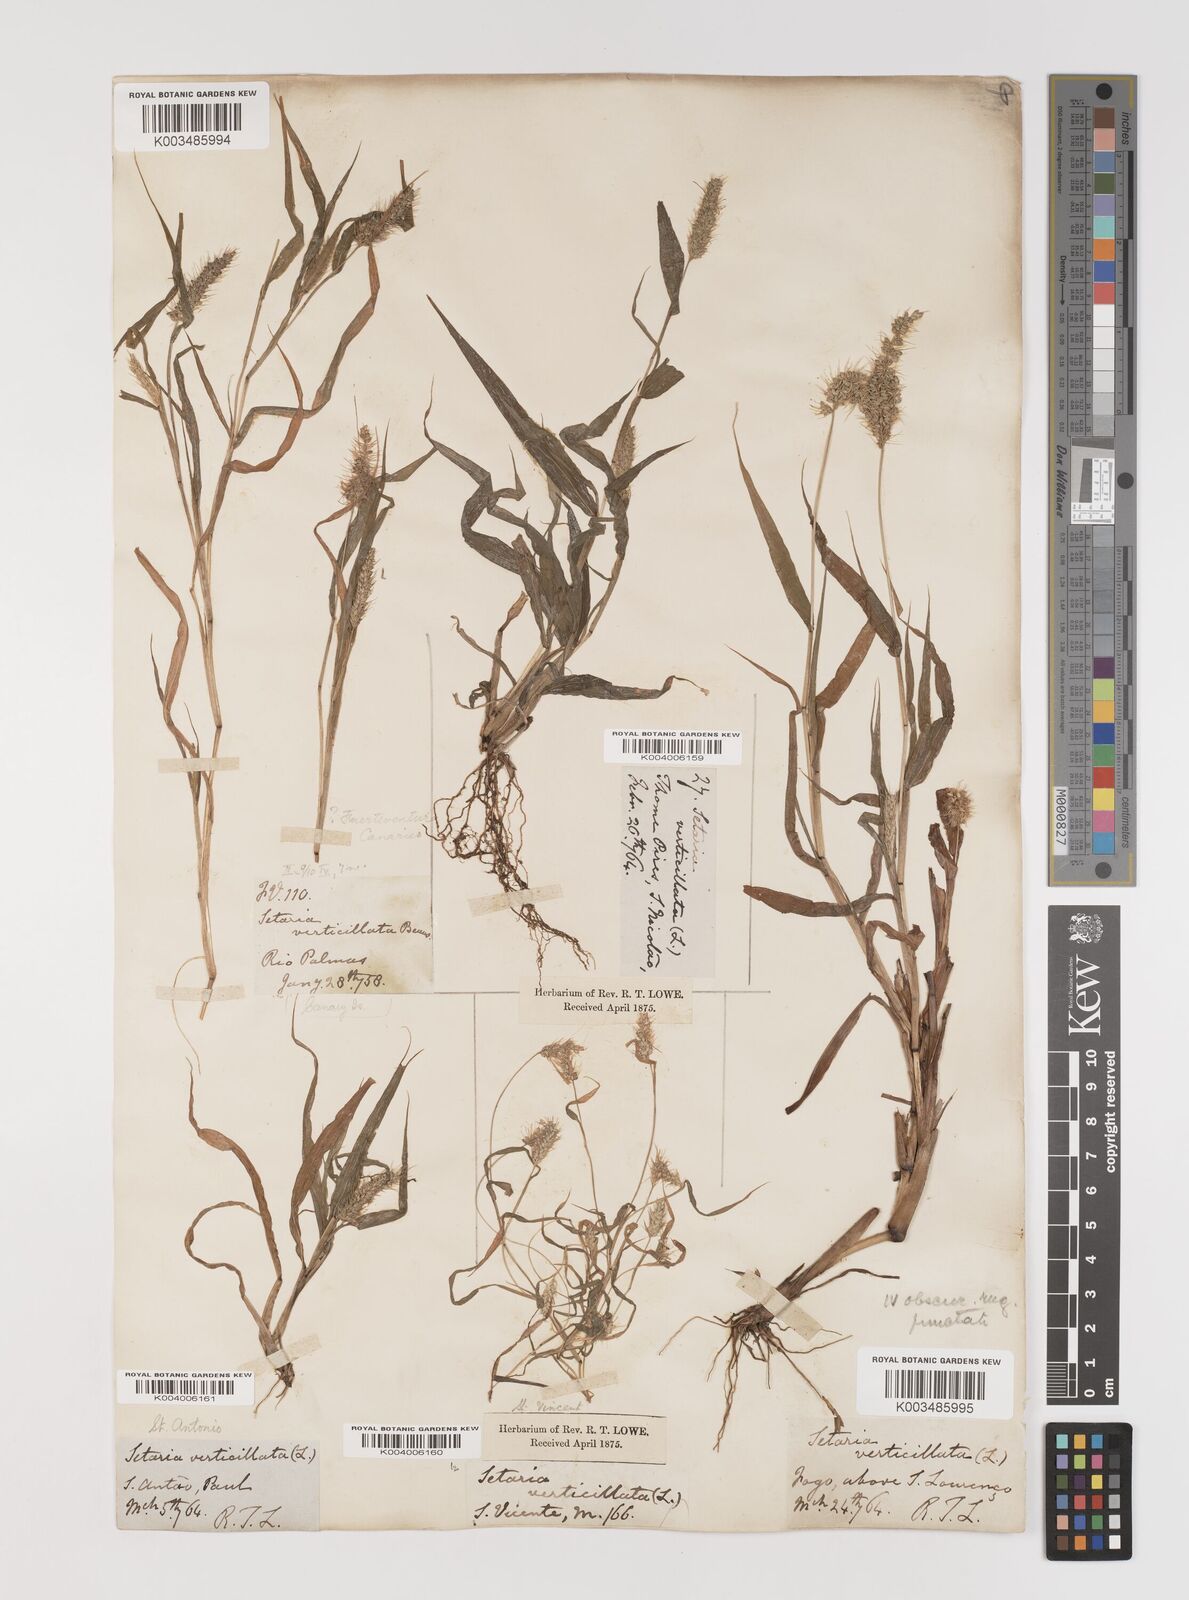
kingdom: Plantae
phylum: Tracheophyta
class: Liliopsida
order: Poales
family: Poaceae
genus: Setaria
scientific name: Setaria verticillata
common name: Hooked bristlegrass
